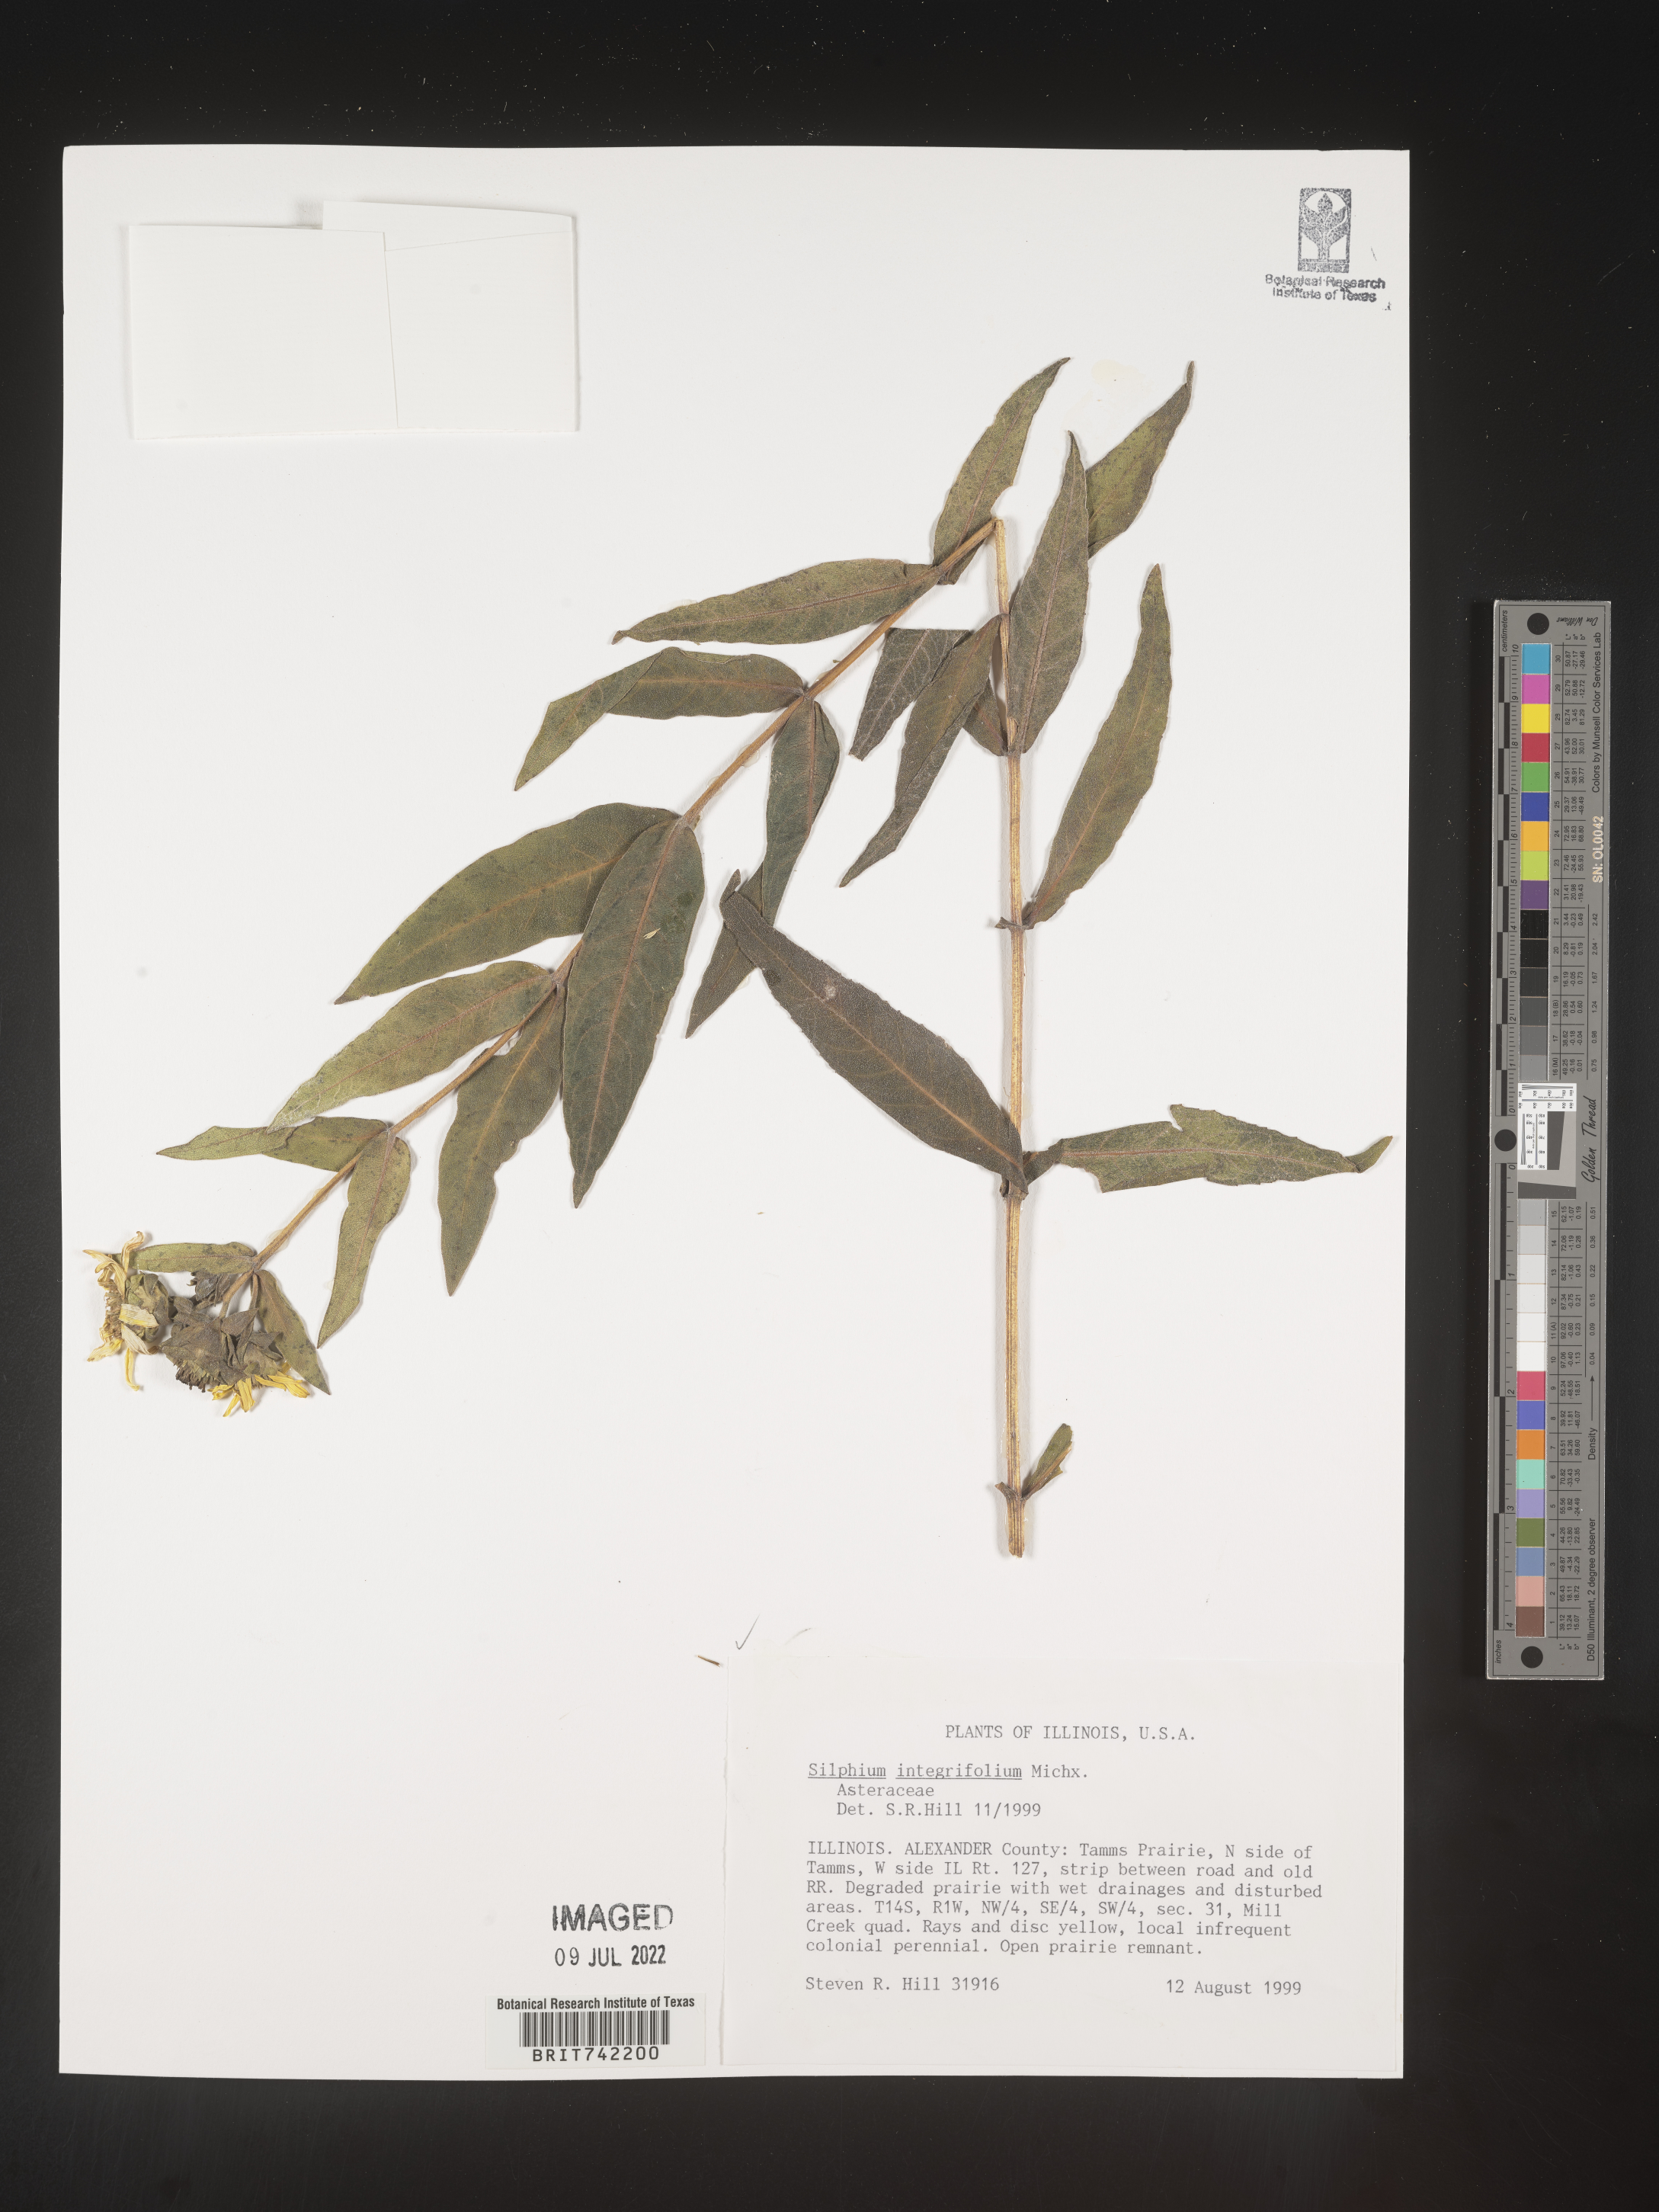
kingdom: Plantae
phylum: Tracheophyta
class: Magnoliopsida
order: Asterales
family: Asteraceae
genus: Silphium
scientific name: Silphium integrifolium
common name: Whole-leaf rosinweed
